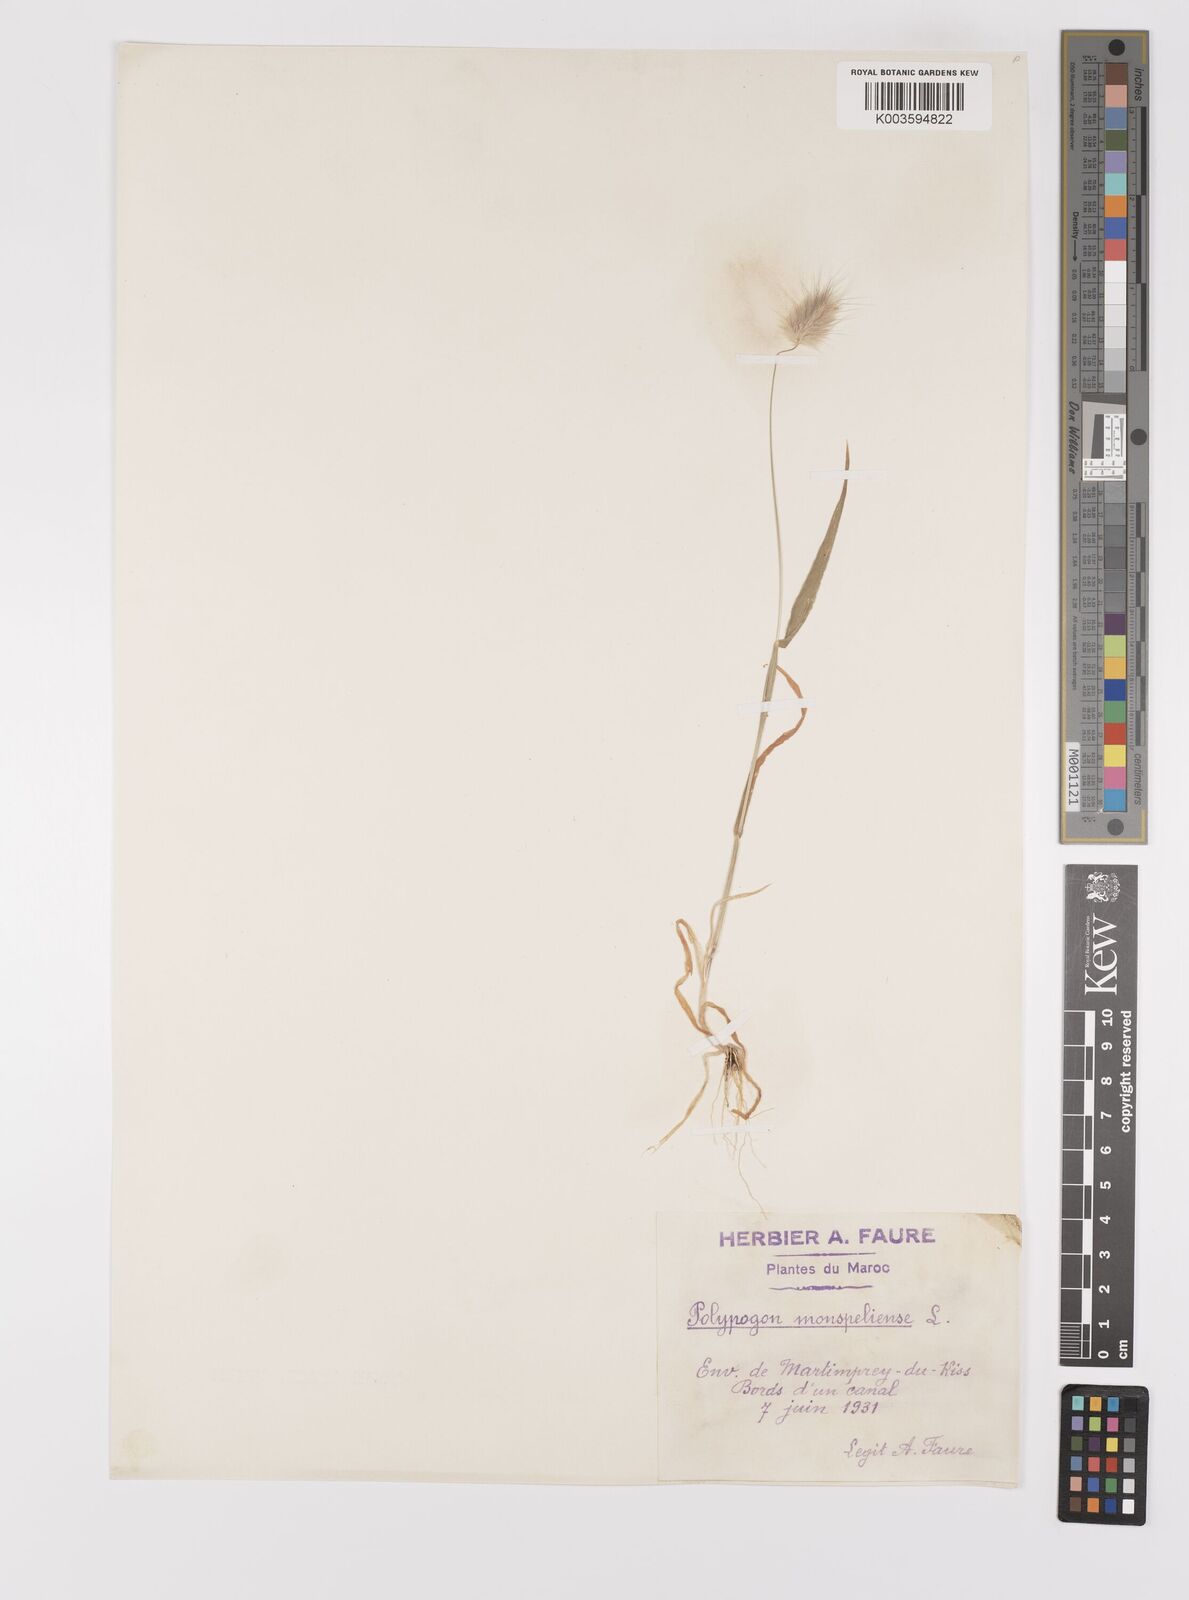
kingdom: Plantae
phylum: Tracheophyta
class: Liliopsida
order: Poales
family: Poaceae
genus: Lagurus
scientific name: Lagurus ovatus
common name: Hare's-tail
